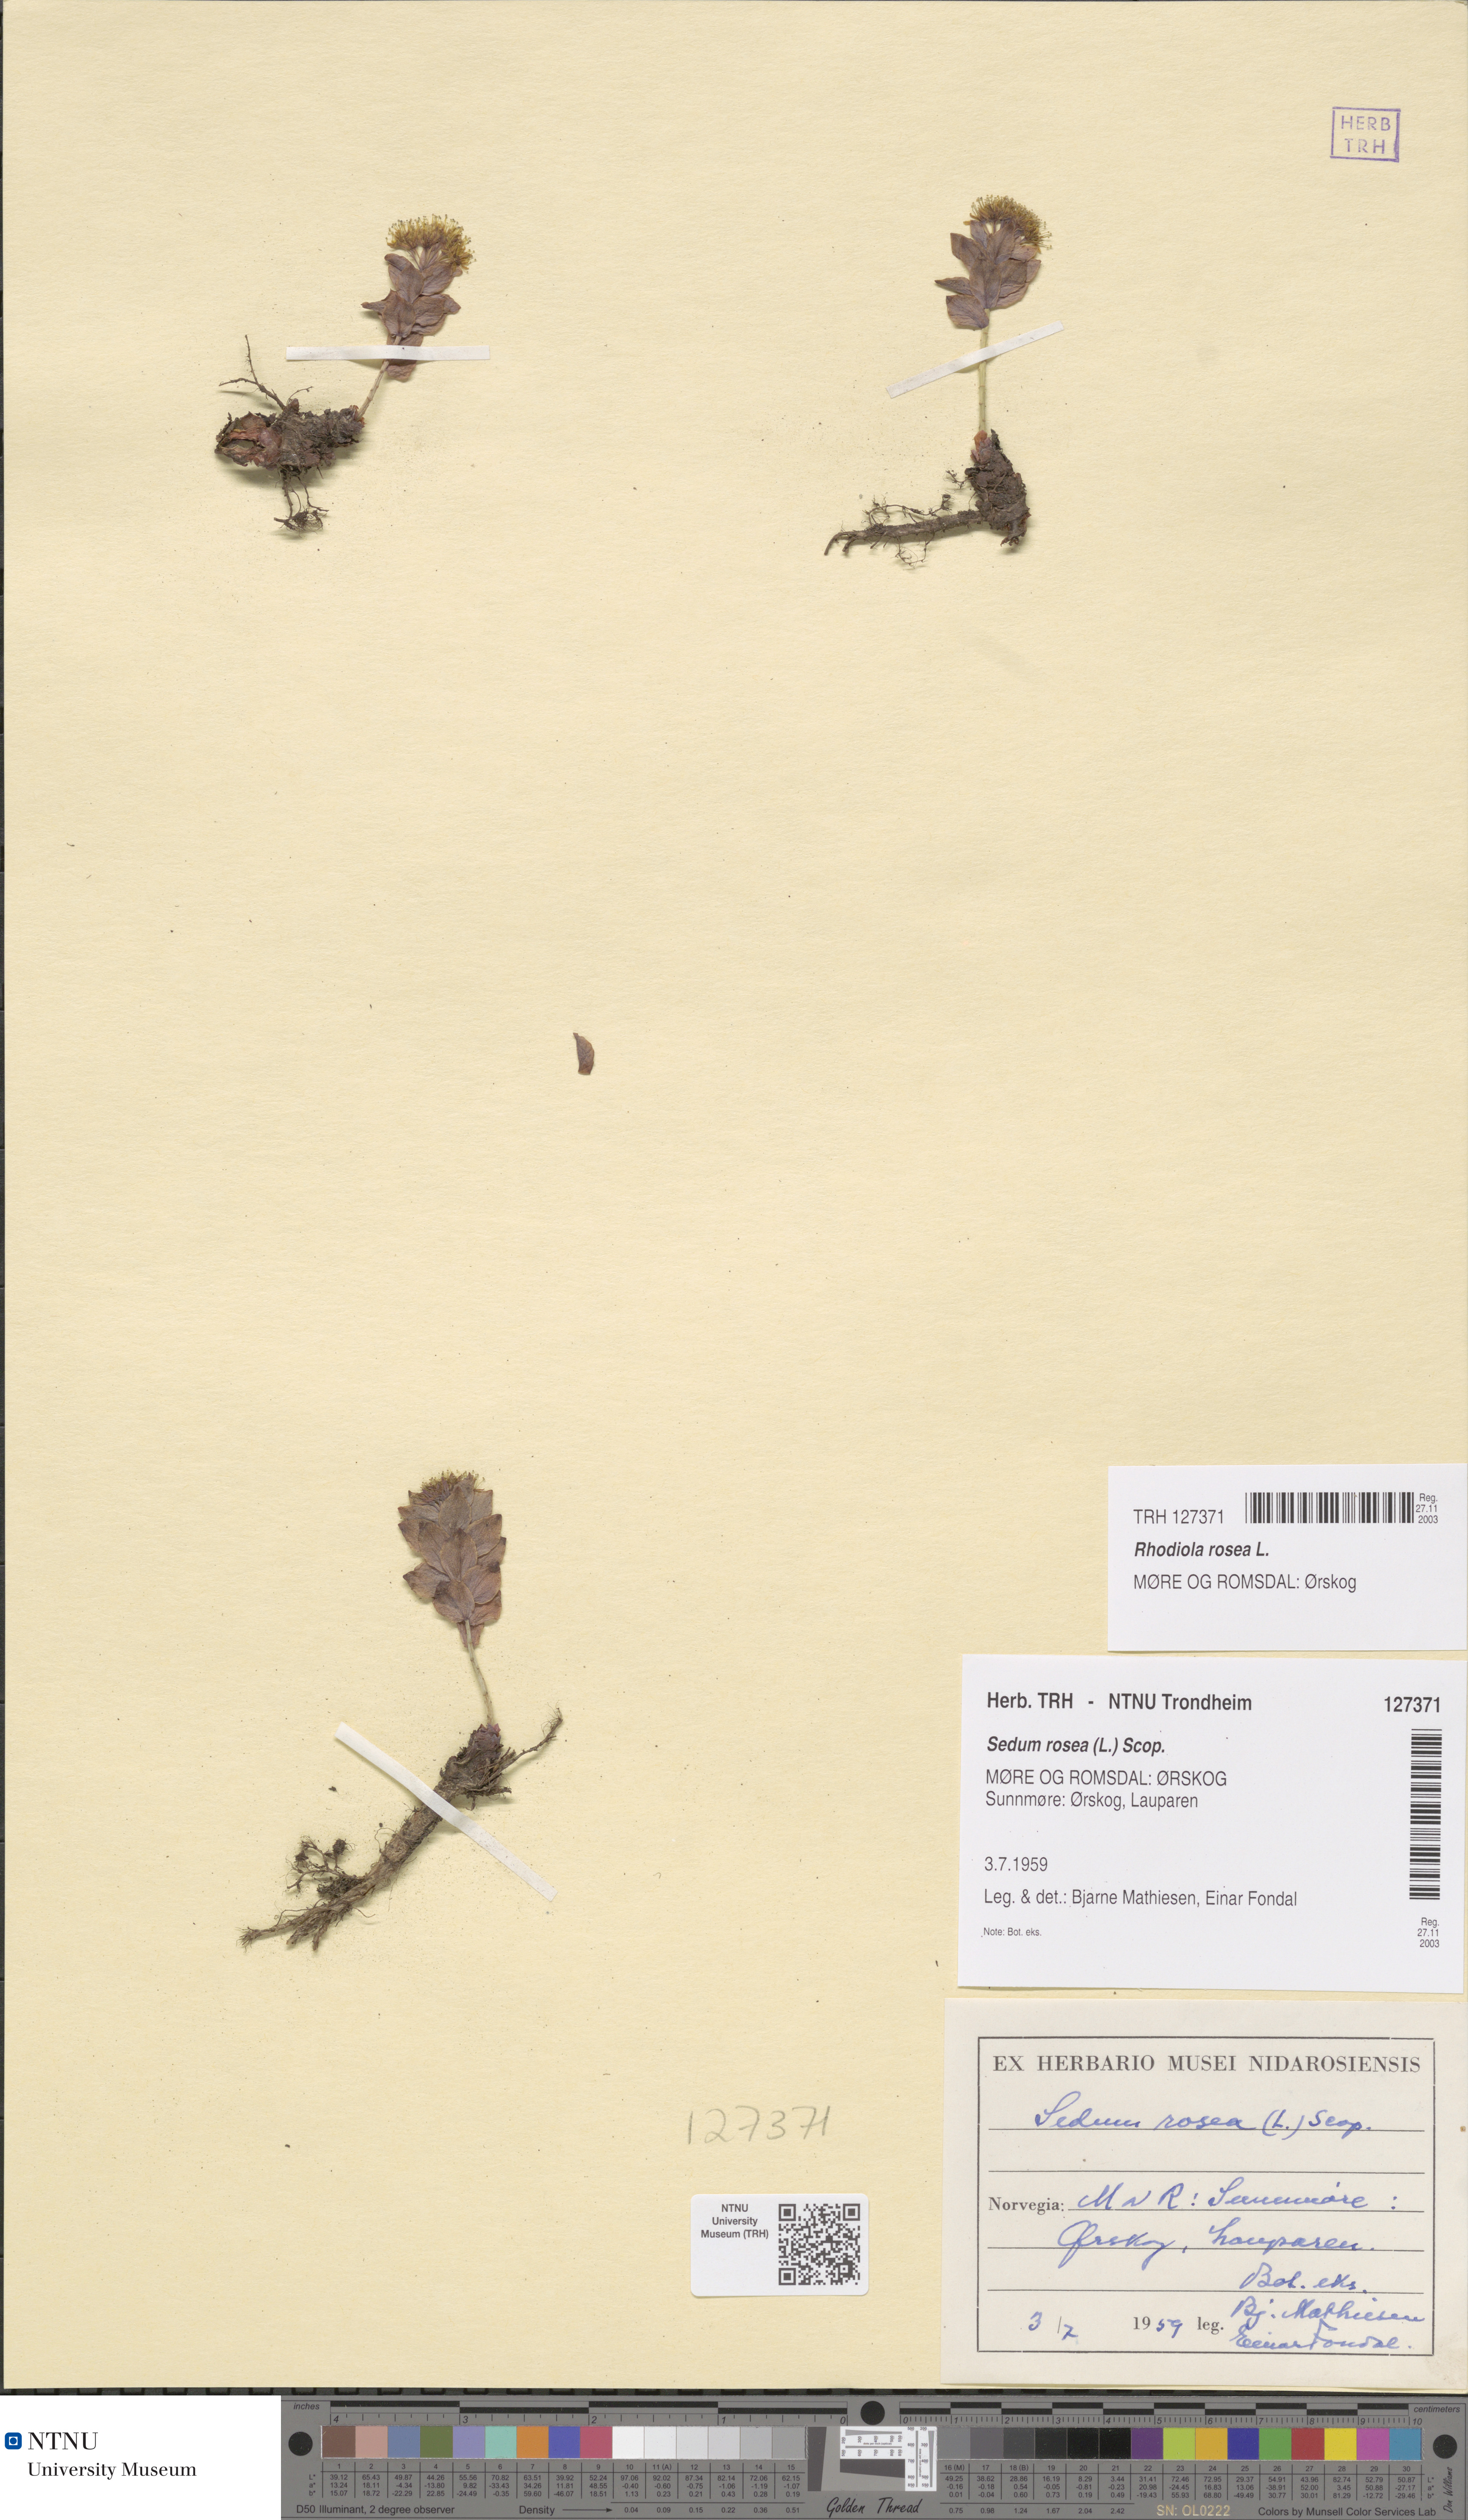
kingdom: Plantae
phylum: Tracheophyta
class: Magnoliopsida
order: Saxifragales
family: Crassulaceae
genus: Rhodiola
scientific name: Rhodiola rosea
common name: Roseroot
